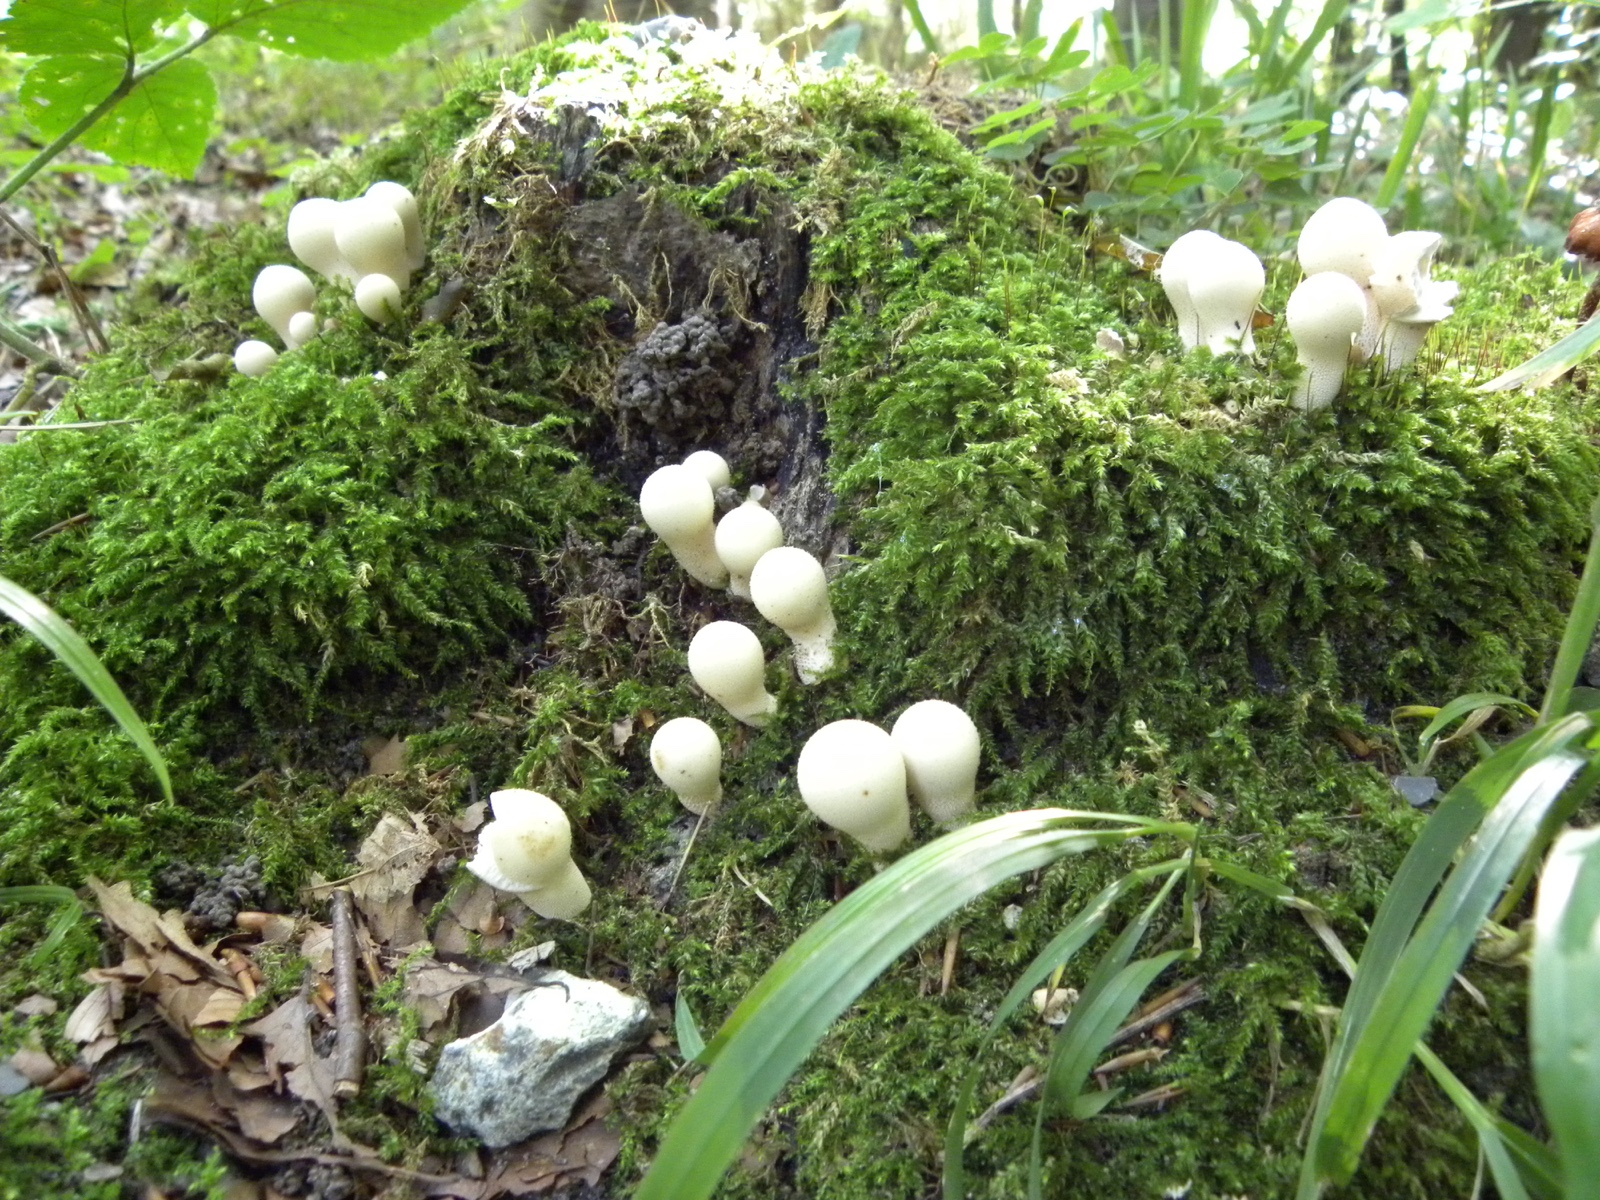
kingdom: Fungi
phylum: Basidiomycota
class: Agaricomycetes
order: Agaricales
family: Lycoperdaceae
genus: Apioperdon
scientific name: Apioperdon pyriforme
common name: pære-støvbold
